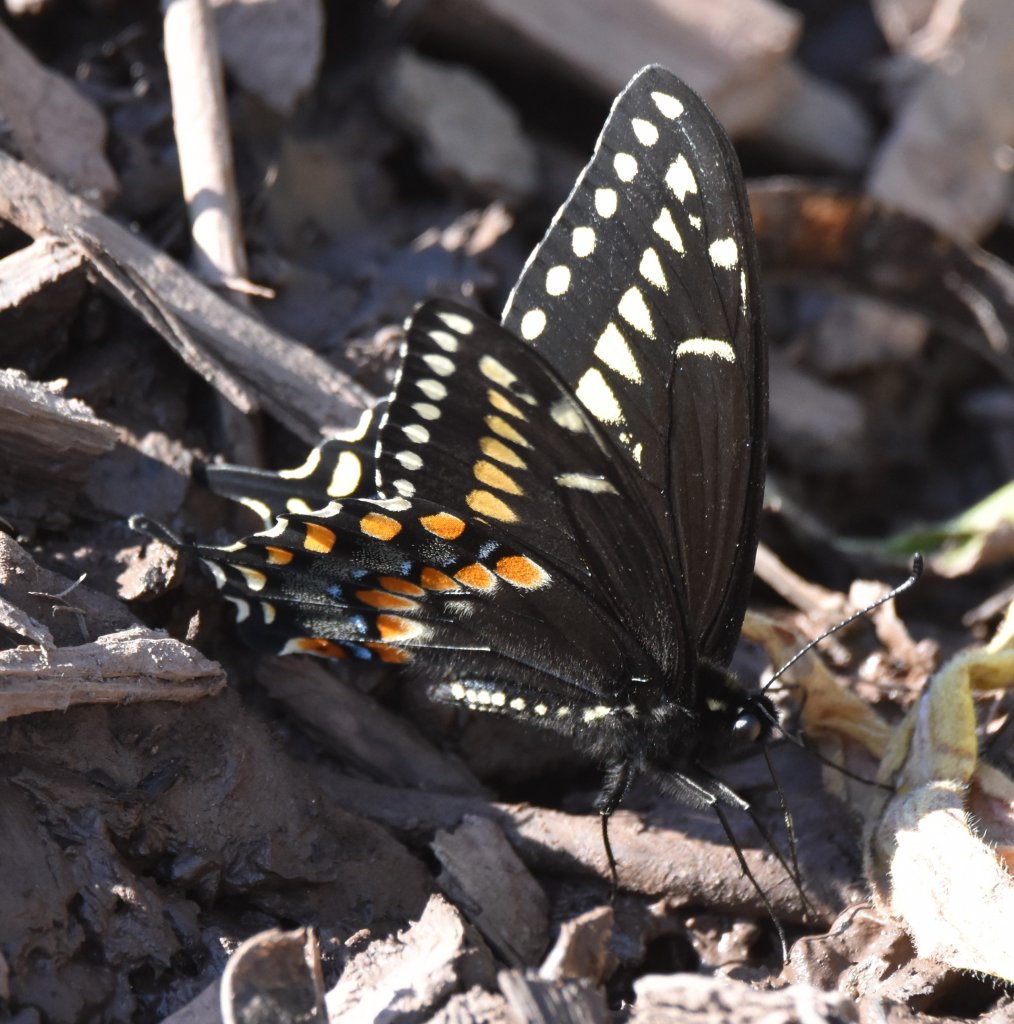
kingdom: Animalia
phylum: Arthropoda
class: Insecta
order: Lepidoptera
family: Papilionidae
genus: Papilio
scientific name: Papilio polyxenes
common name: Black Swallowtail
